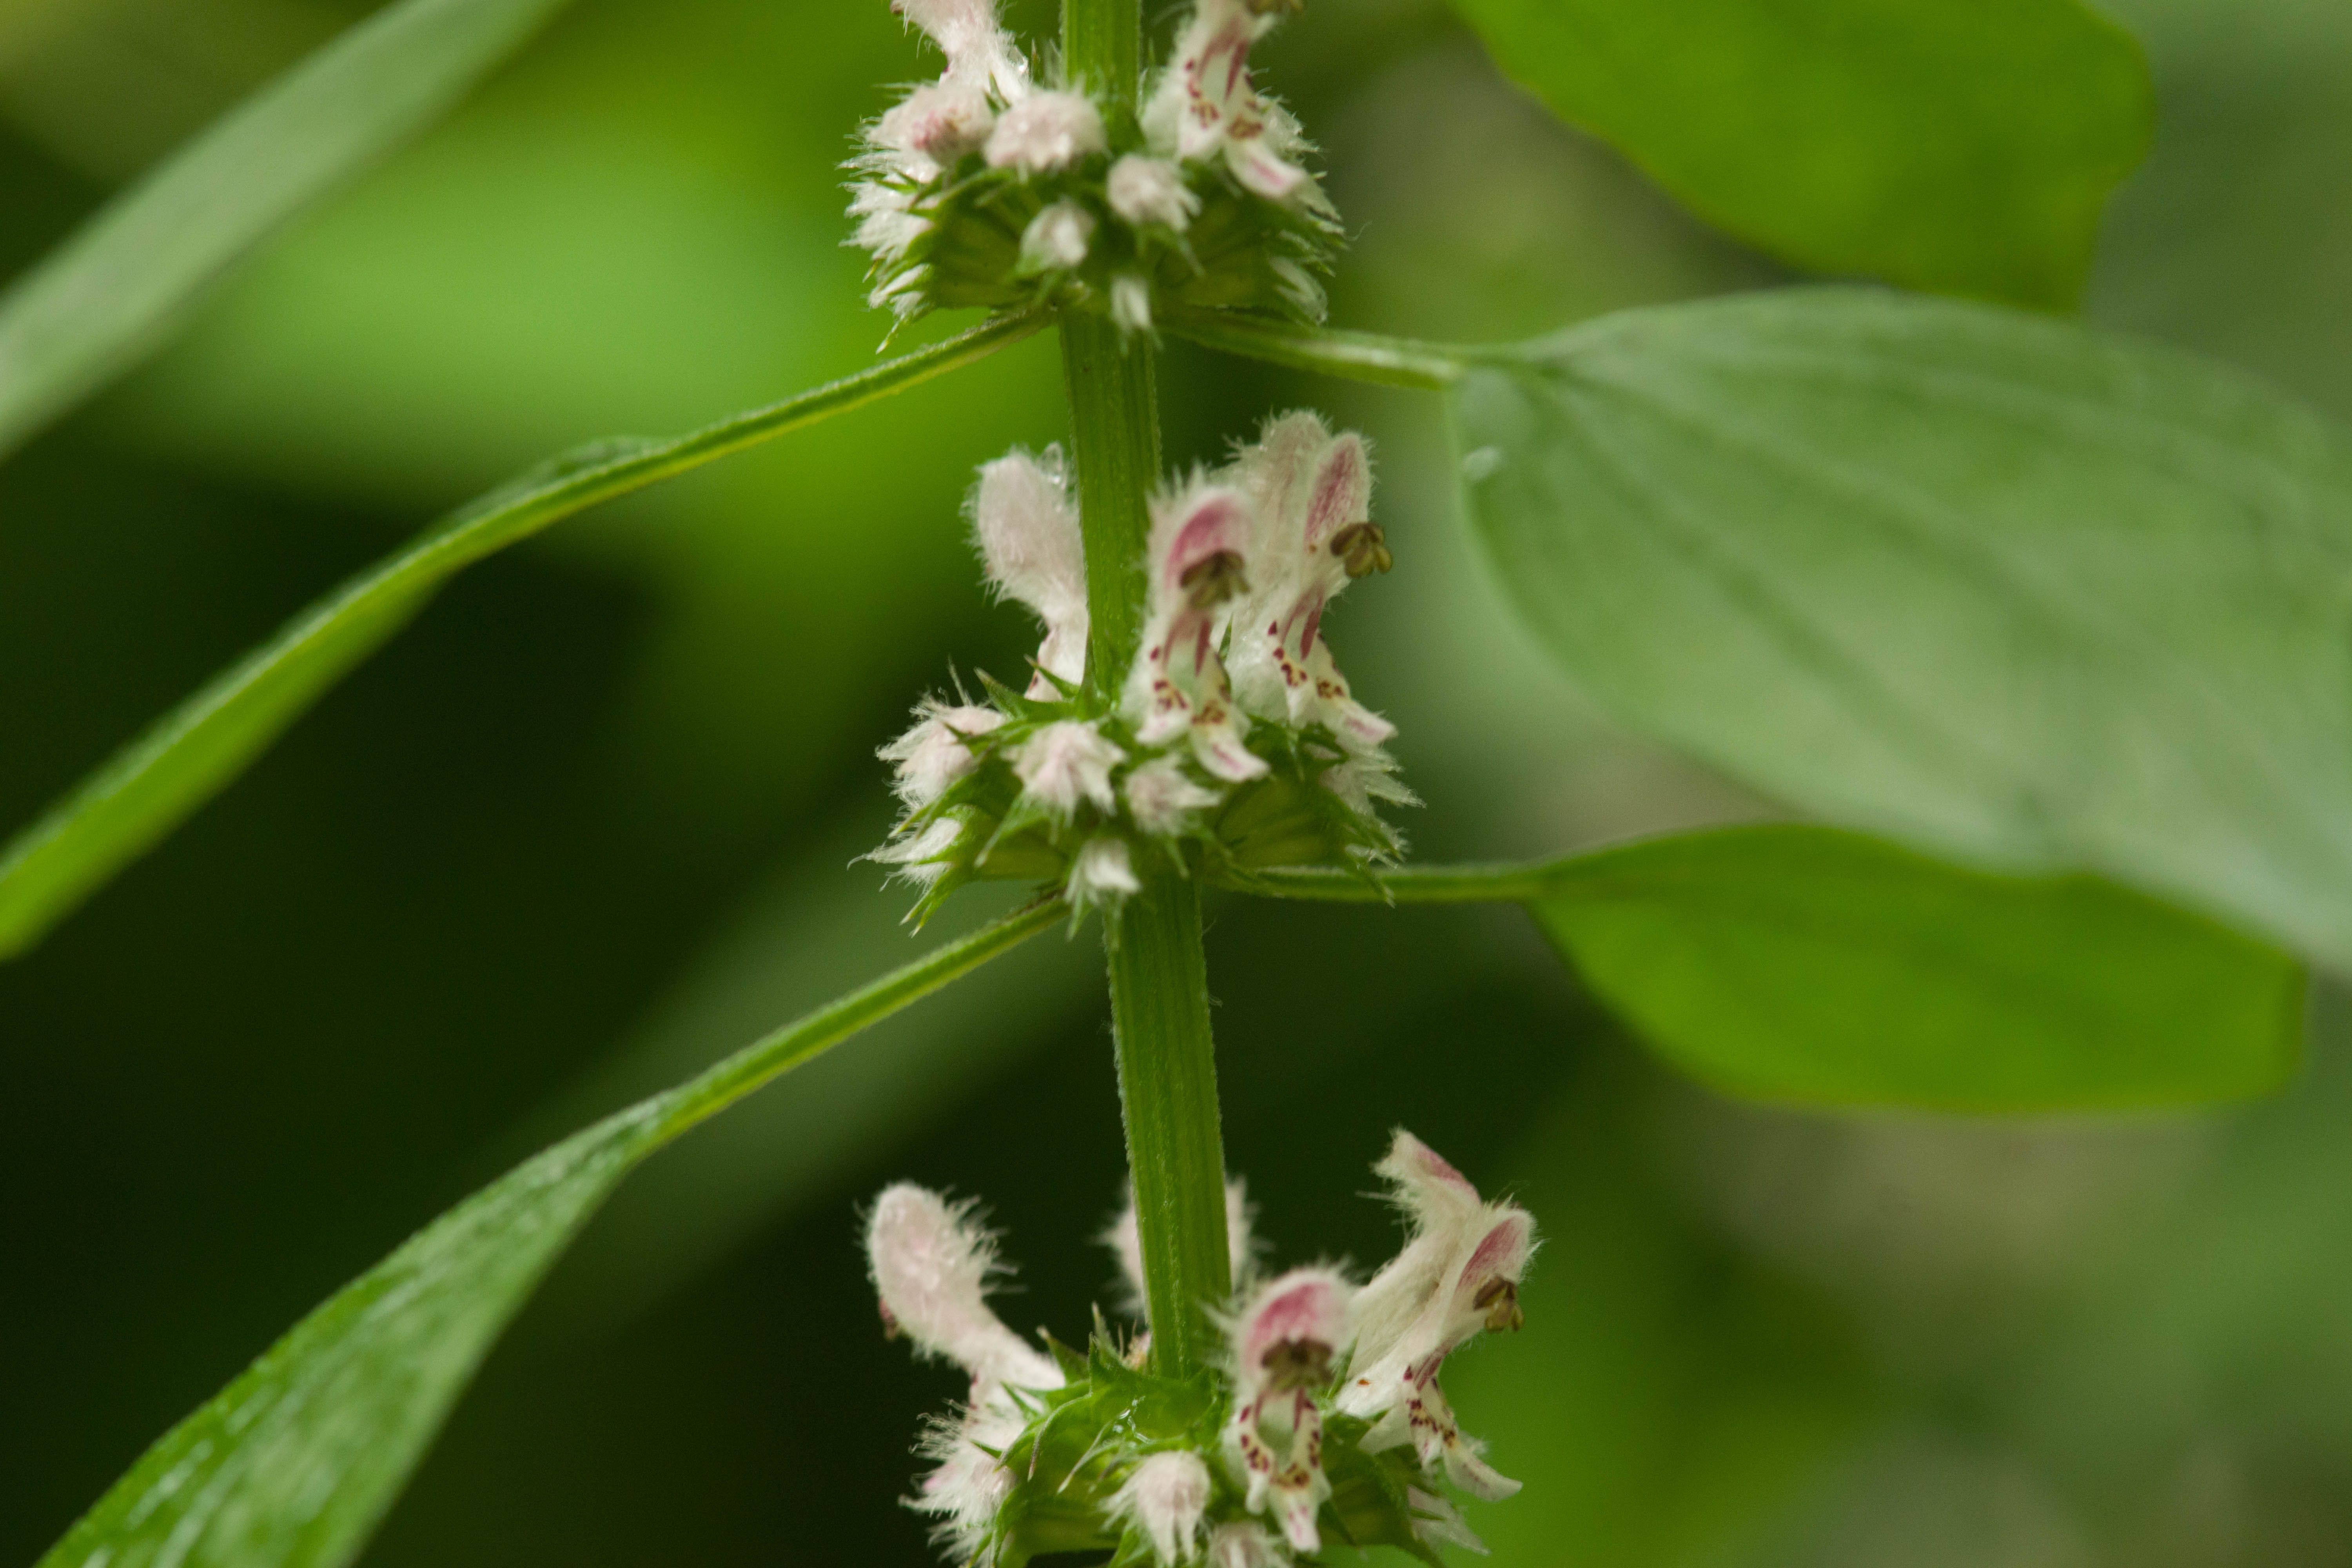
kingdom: Plantae
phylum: Tracheophyta
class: Magnoliopsida
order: Lamiales
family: Lamiaceae
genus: Leonurus
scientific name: Leonurus cardiaca
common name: Motherwort
